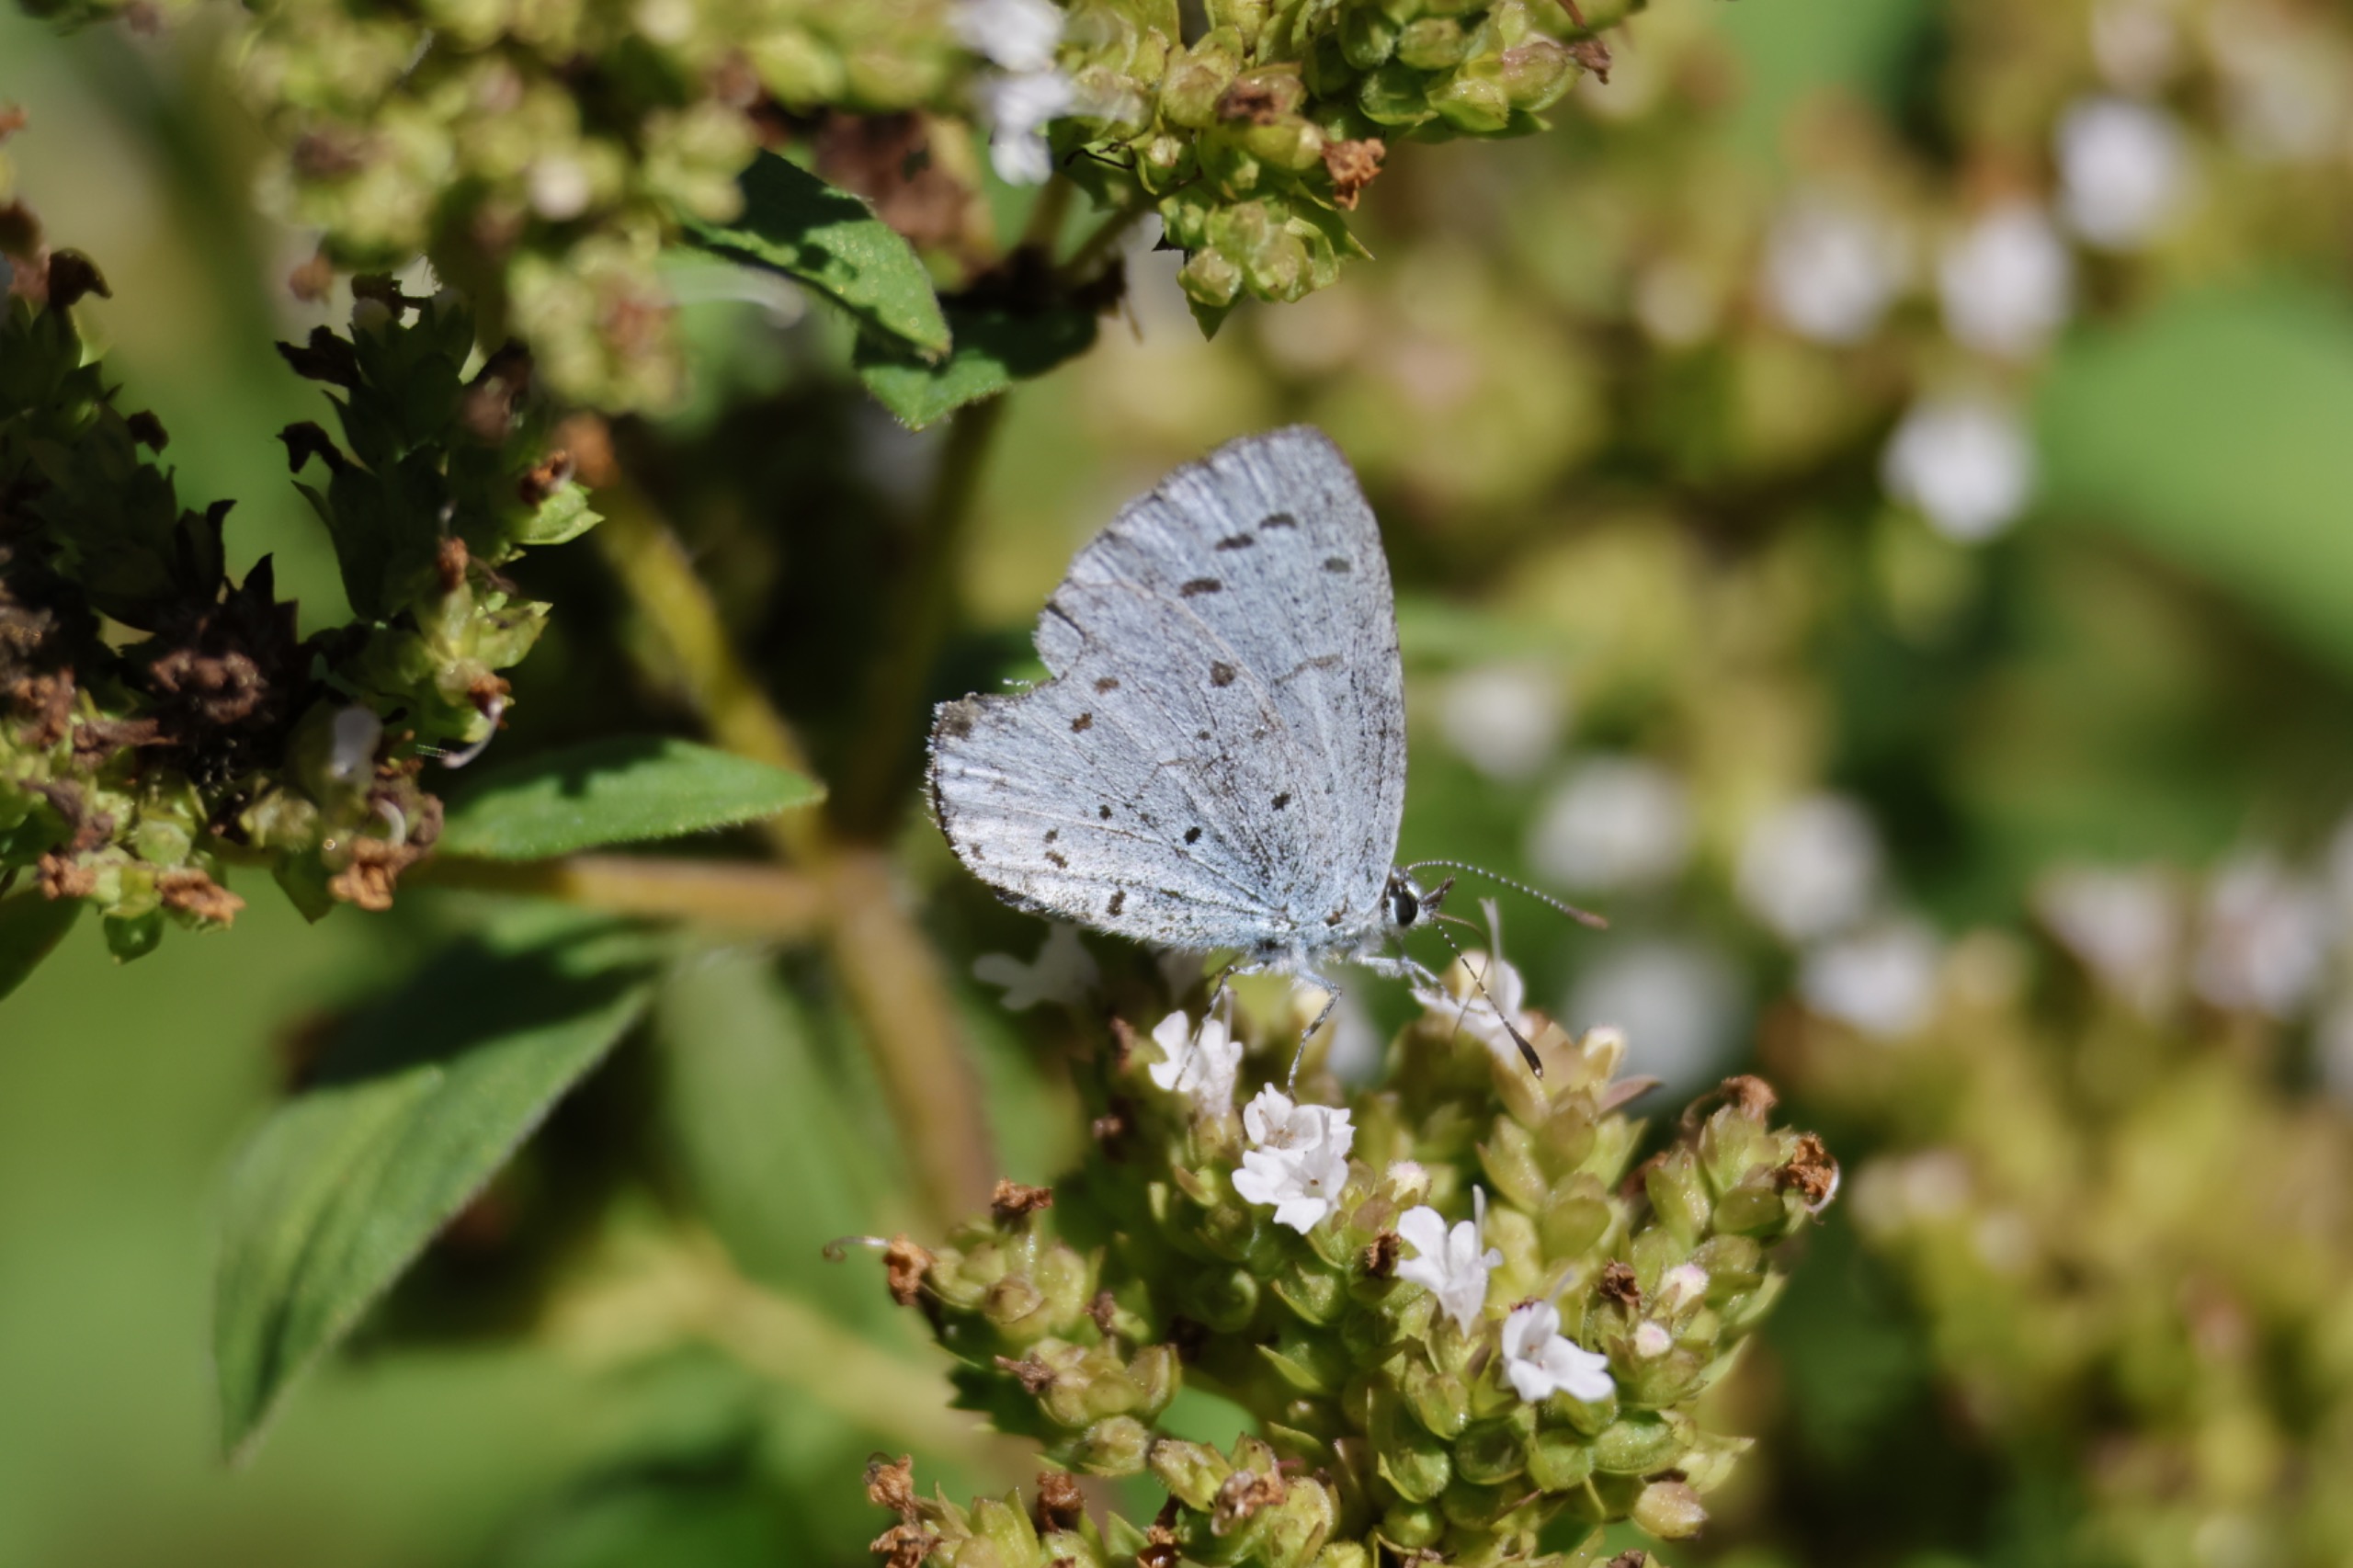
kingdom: Animalia
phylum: Arthropoda
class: Insecta
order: Lepidoptera
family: Lycaenidae
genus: Celastrina
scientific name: Celastrina argiolus
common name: Skovblåfugl
